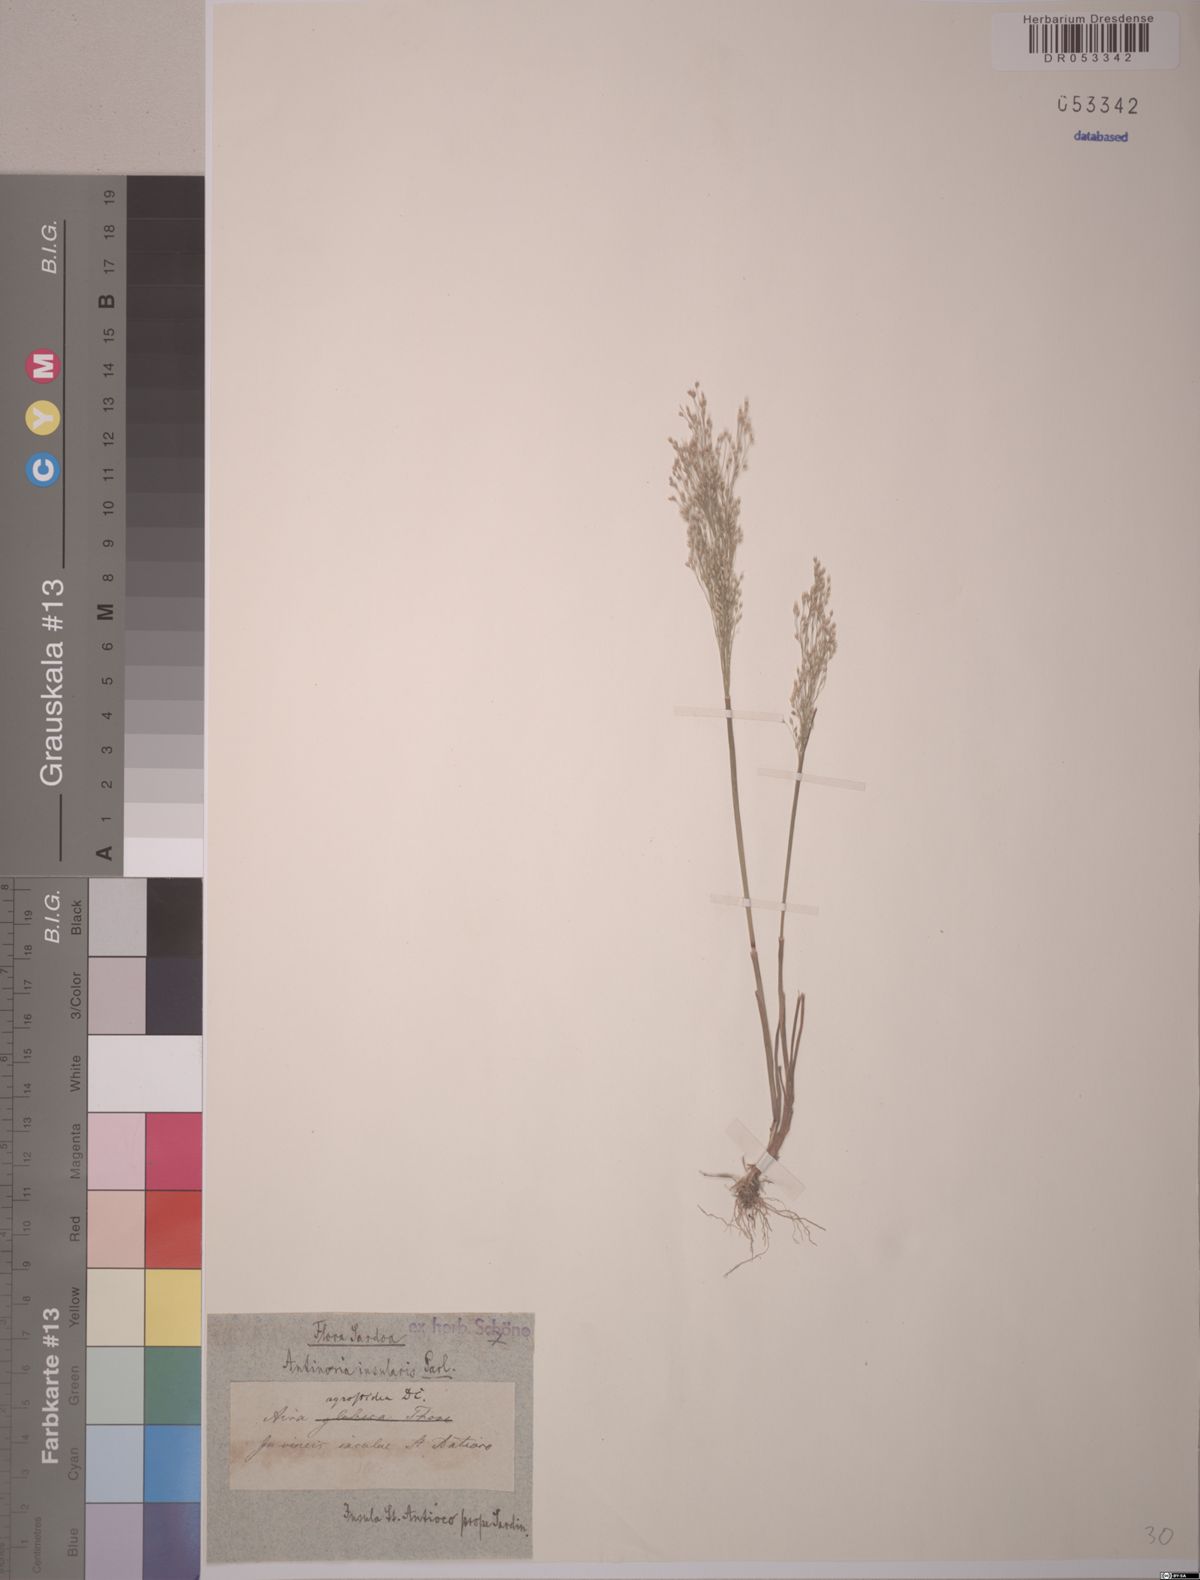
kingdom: Plantae
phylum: Tracheophyta
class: Liliopsida
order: Poales
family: Poaceae
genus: Antinoria
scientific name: Antinoria insularis
